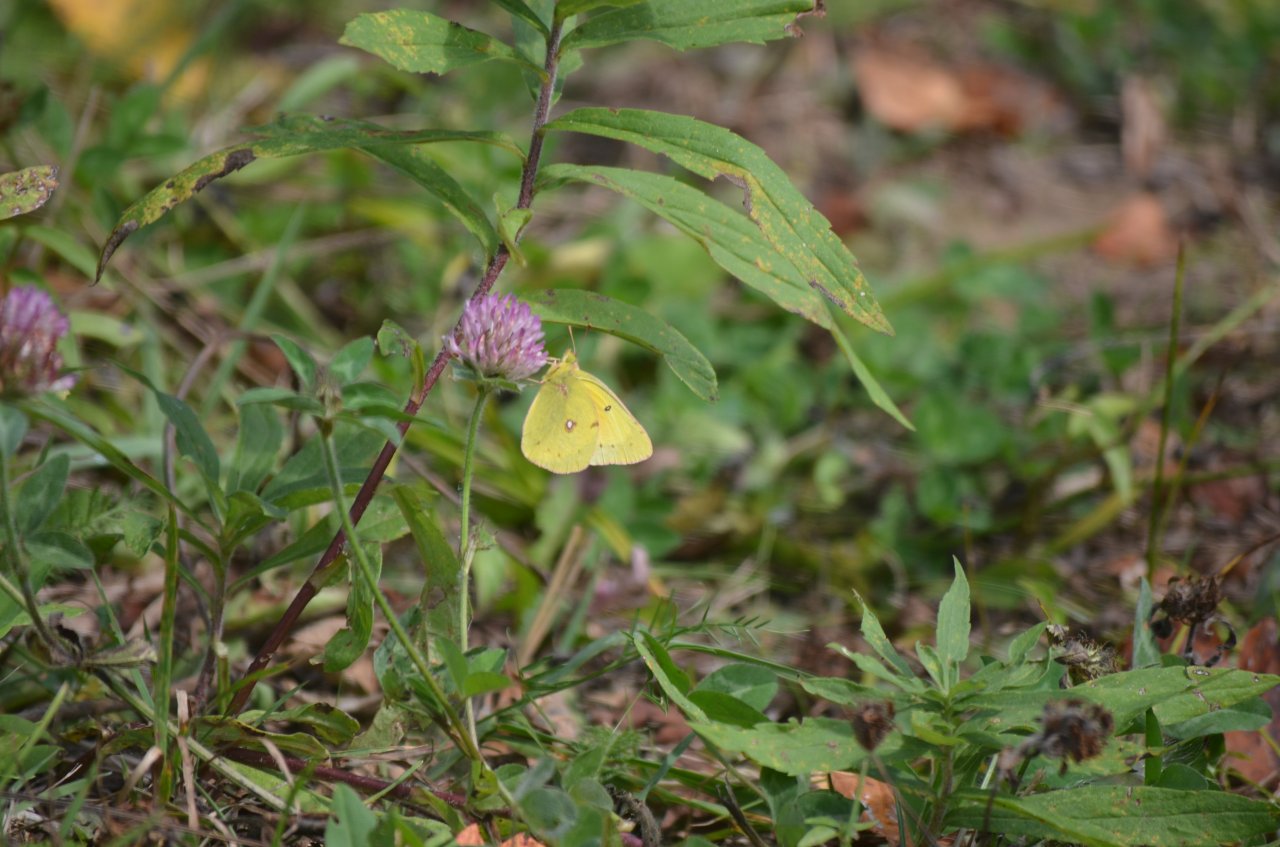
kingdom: Animalia
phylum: Arthropoda
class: Insecta
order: Lepidoptera
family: Pieridae
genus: Colias
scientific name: Colias philodice
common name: Clouded Sulphur
